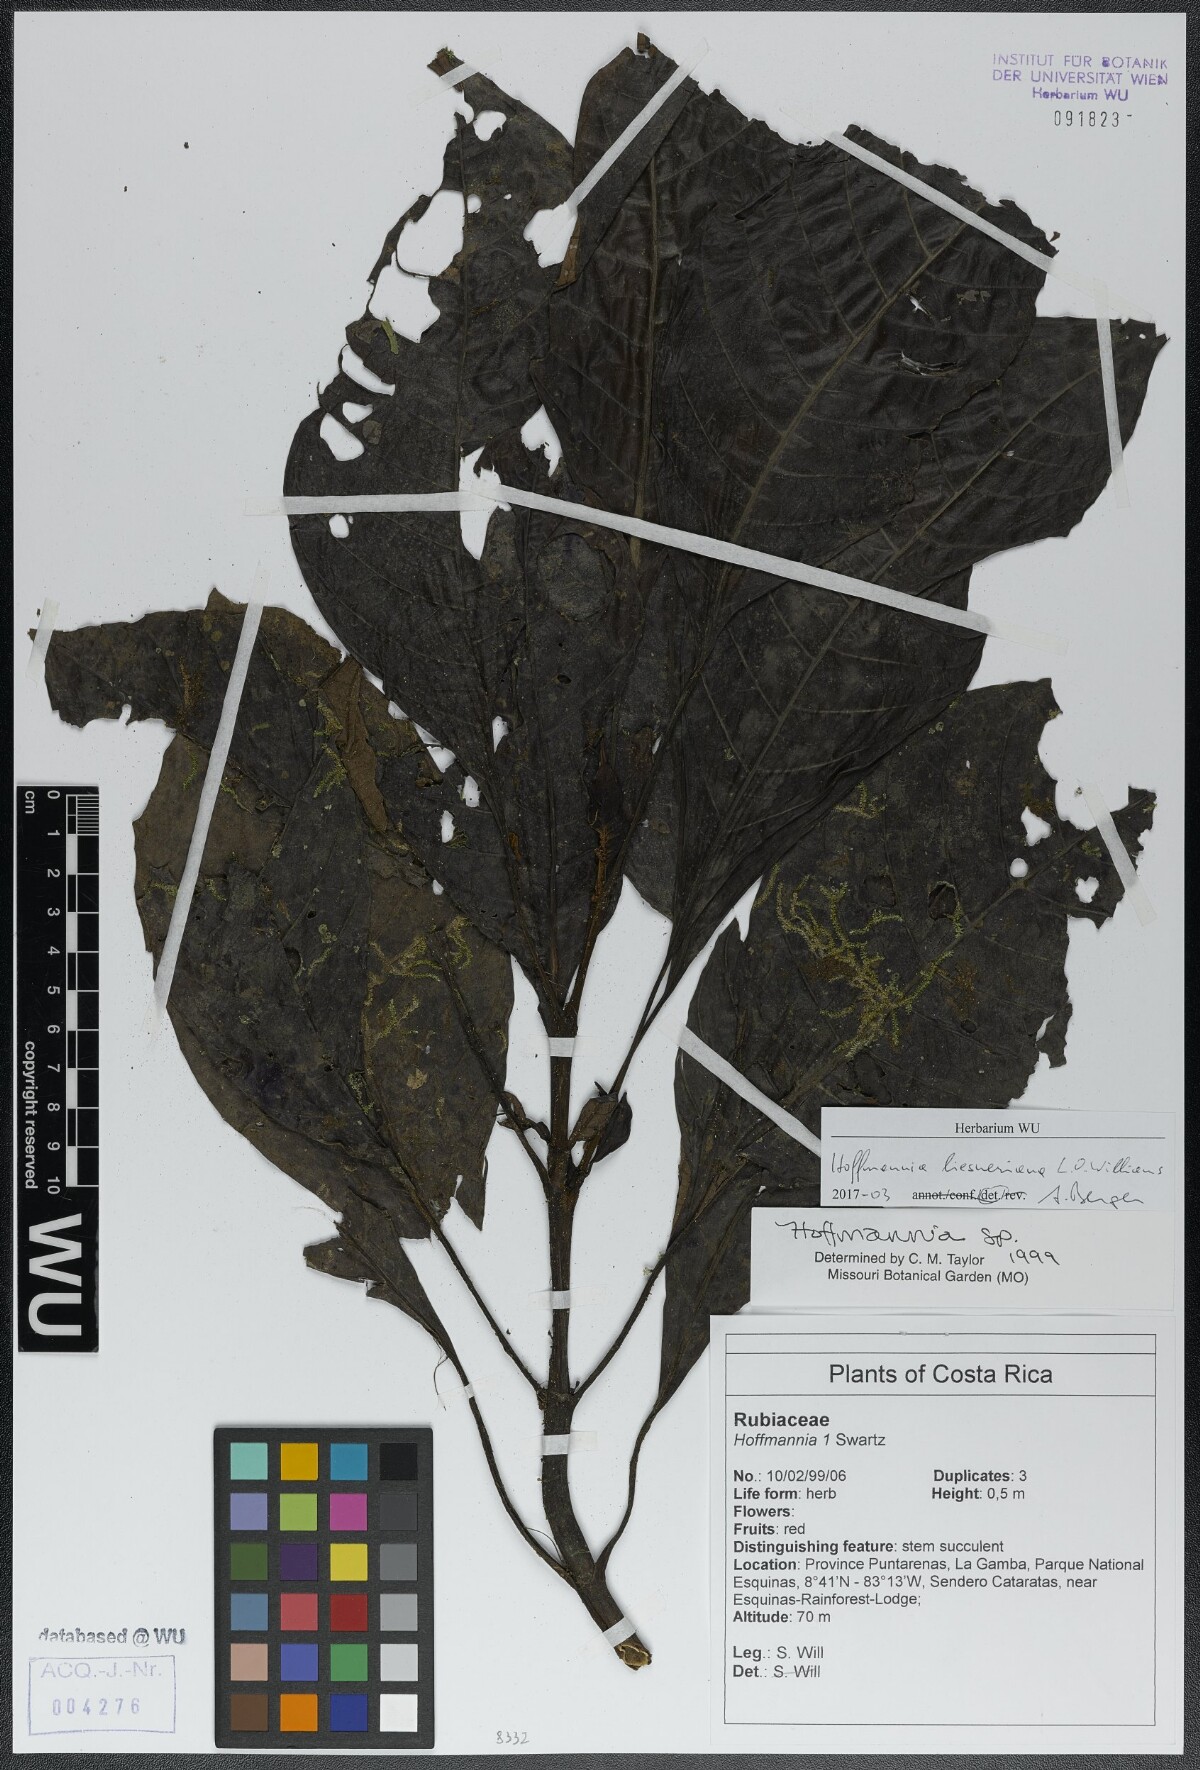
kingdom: Plantae
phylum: Tracheophyta
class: Magnoliopsida
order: Gentianales
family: Rubiaceae
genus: Hoffmannia
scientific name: Hoffmannia liesneriana
